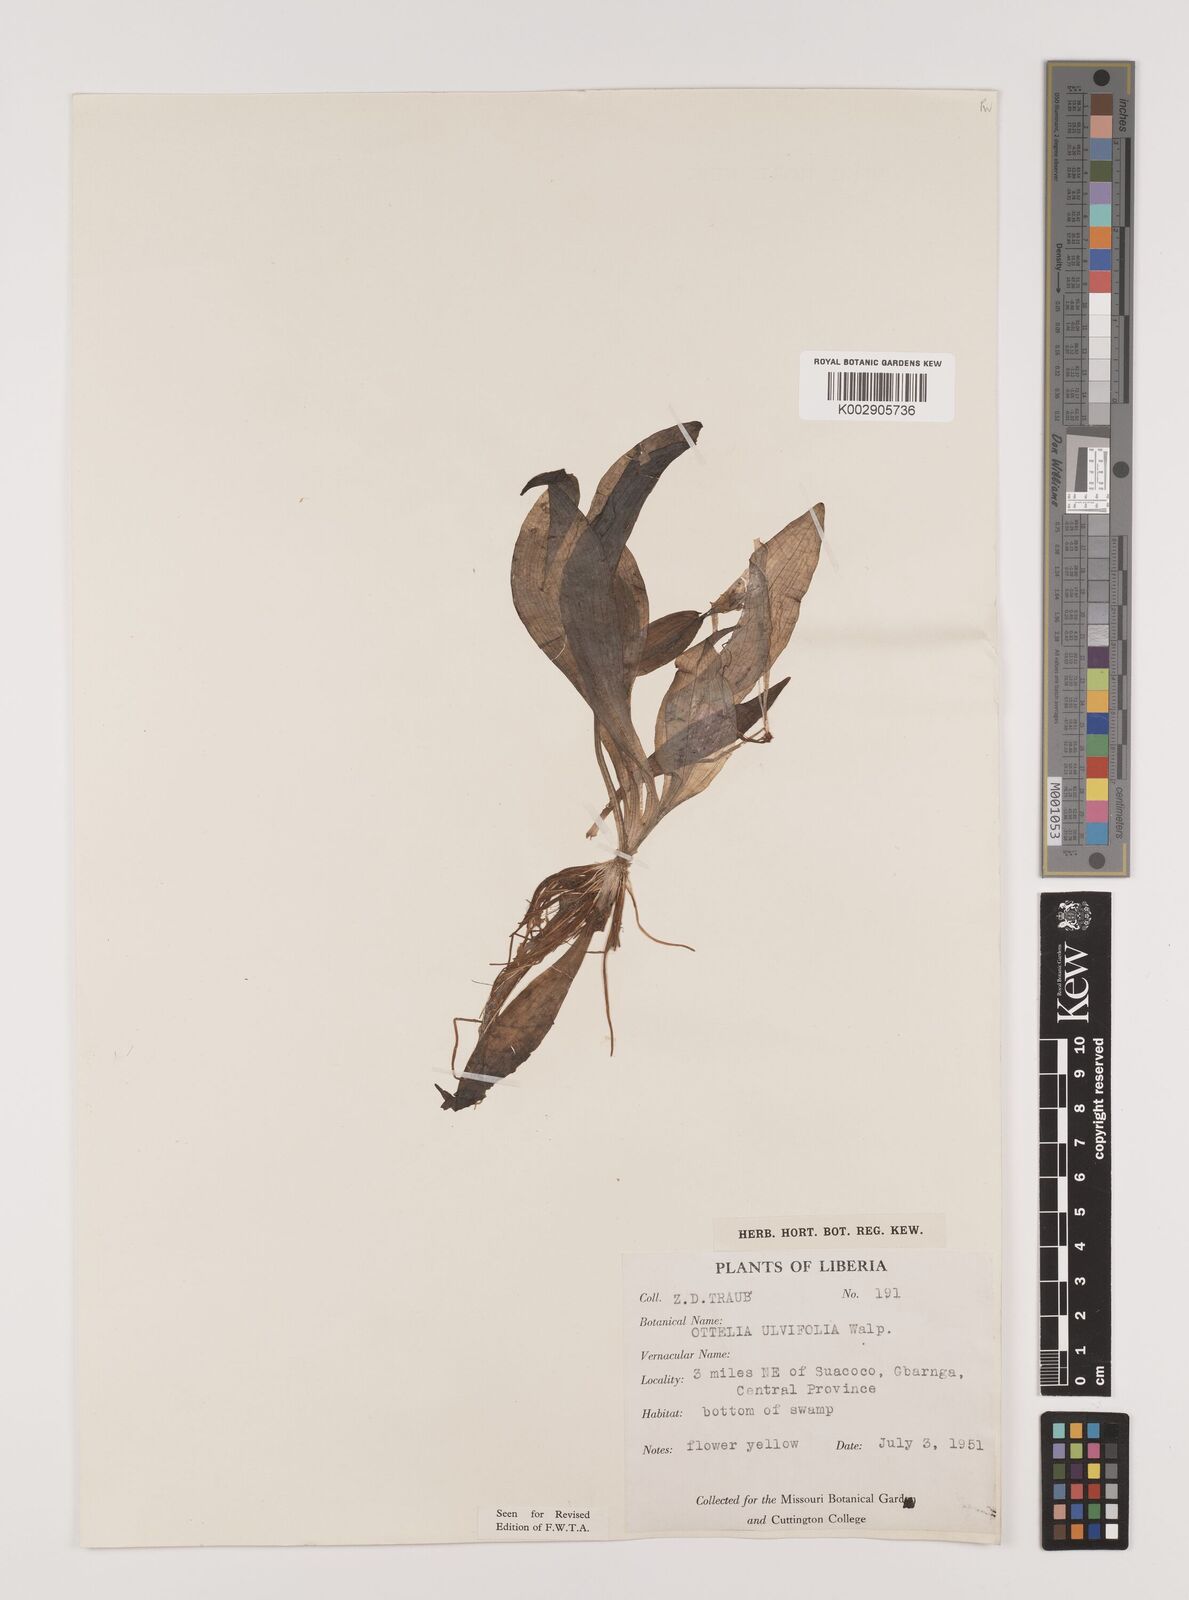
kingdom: Plantae
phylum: Tracheophyta
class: Liliopsida
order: Alismatales
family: Hydrocharitaceae
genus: Ottelia
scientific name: Ottelia ulvifolia
